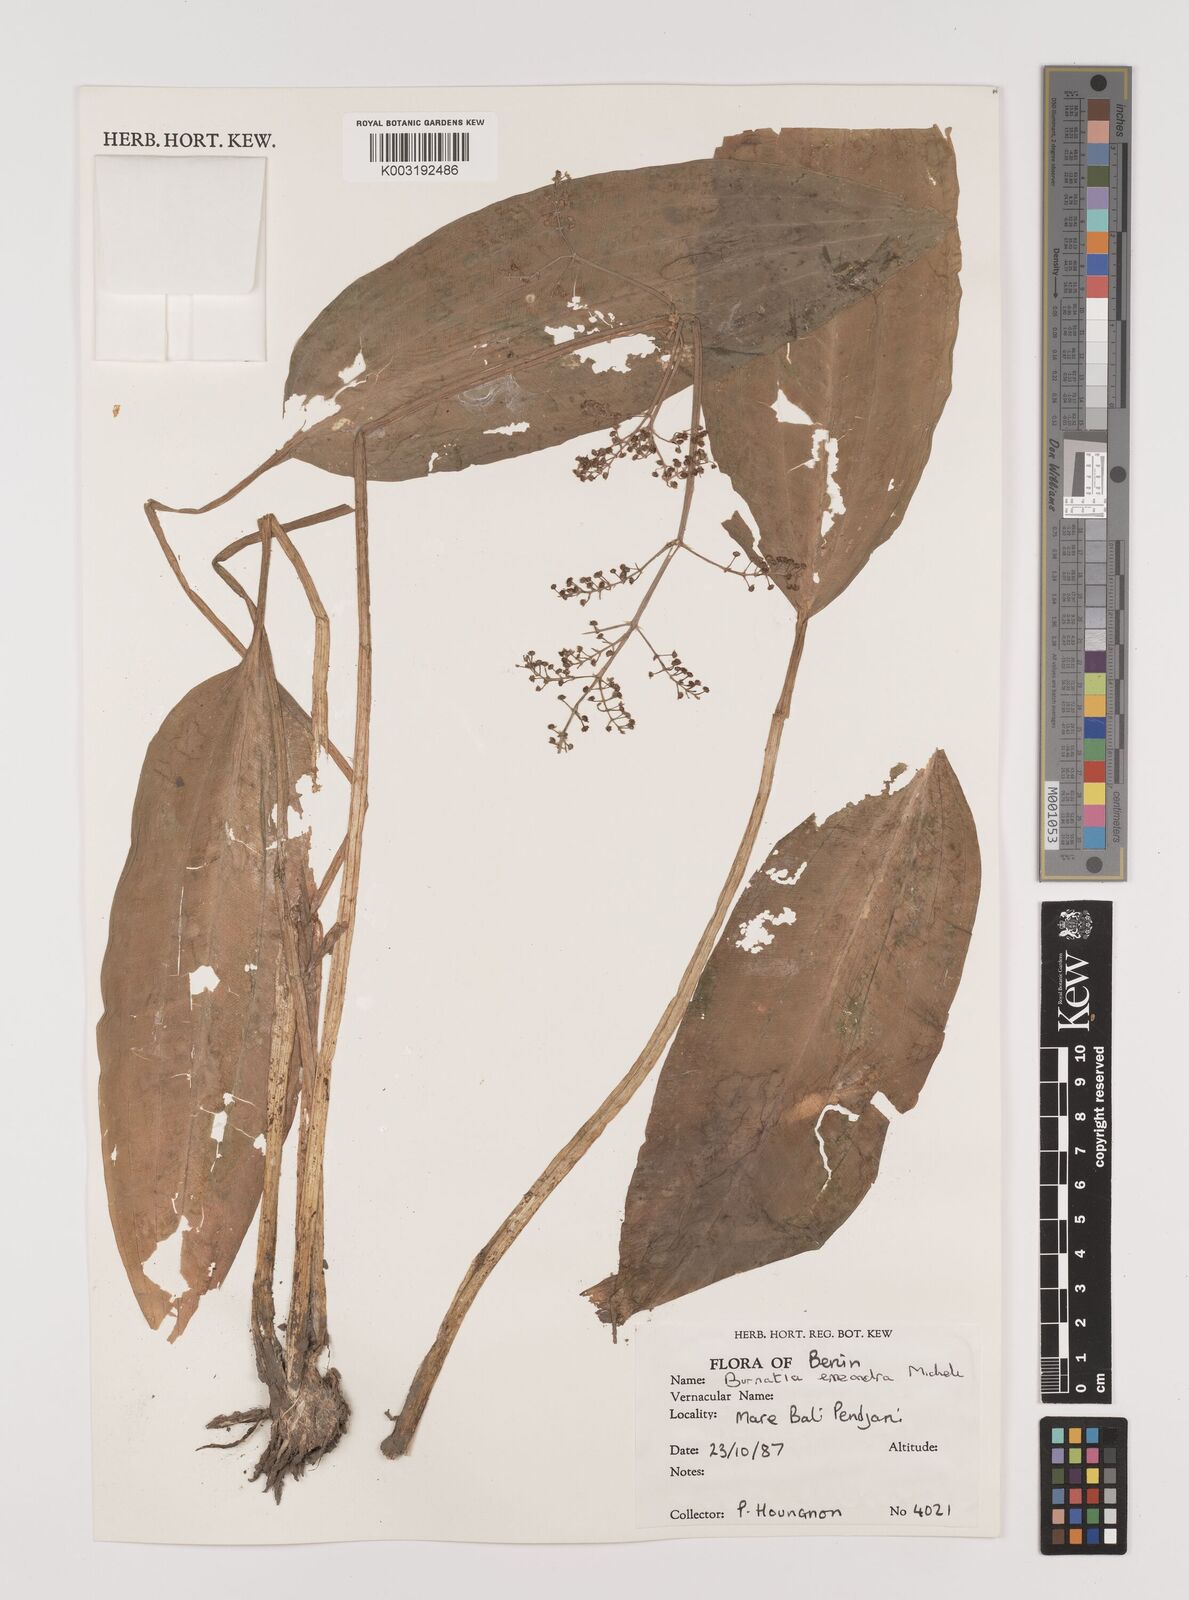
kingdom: Plantae
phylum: Tracheophyta
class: Liliopsida
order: Alismatales
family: Alismataceae
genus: Burnatia
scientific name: Burnatia enneandra
